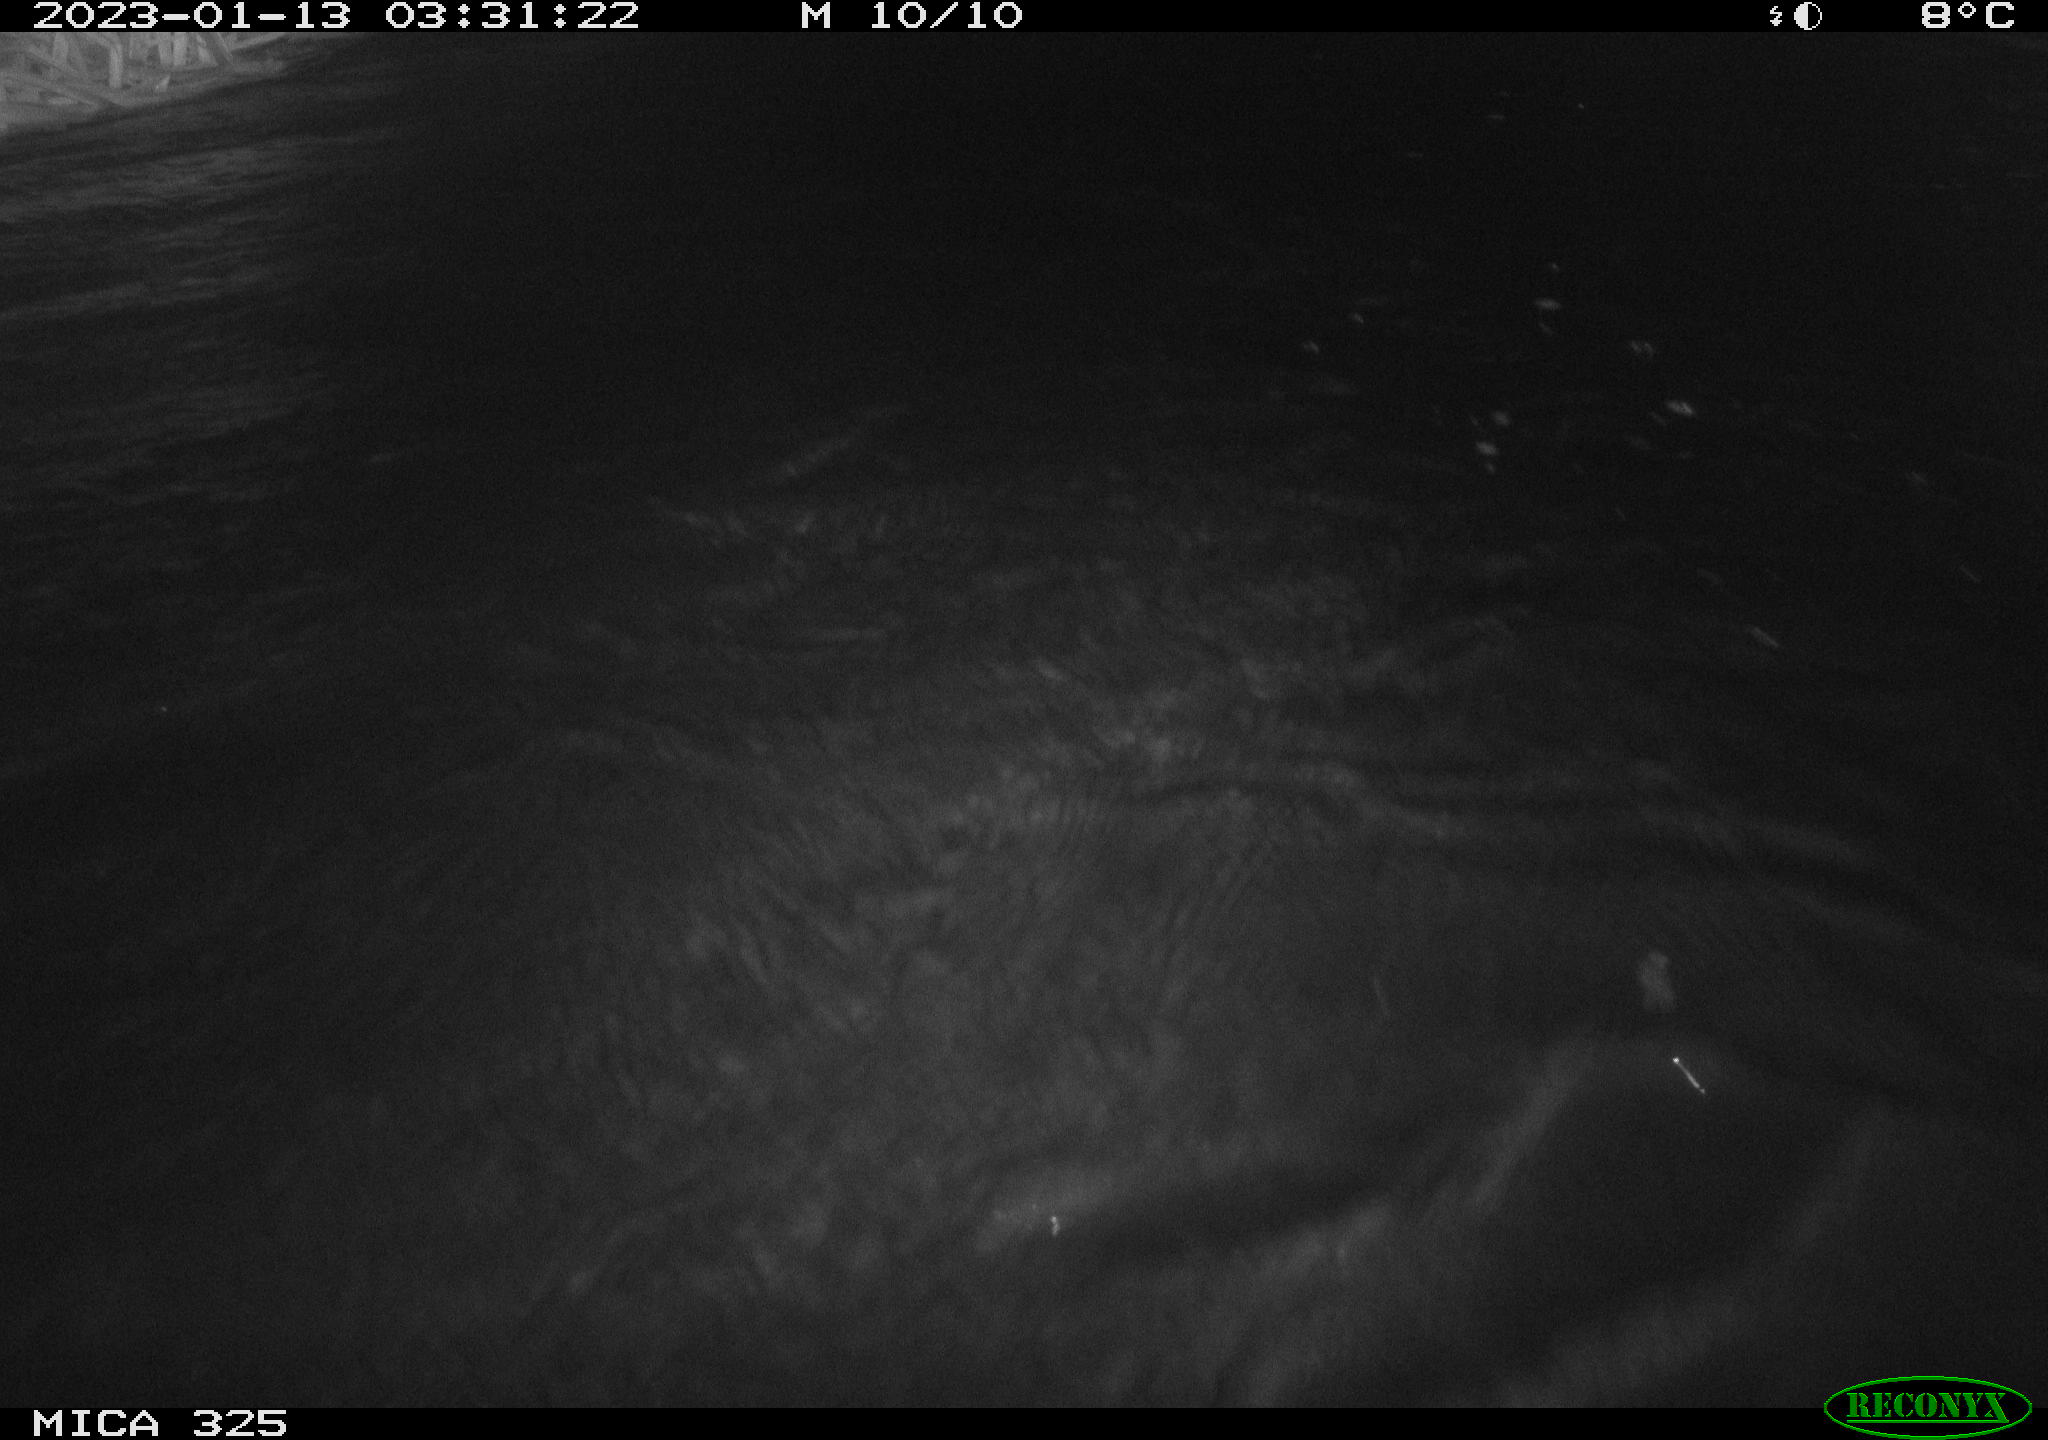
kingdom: Animalia
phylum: Chordata
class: Mammalia
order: Rodentia
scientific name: Rodentia
